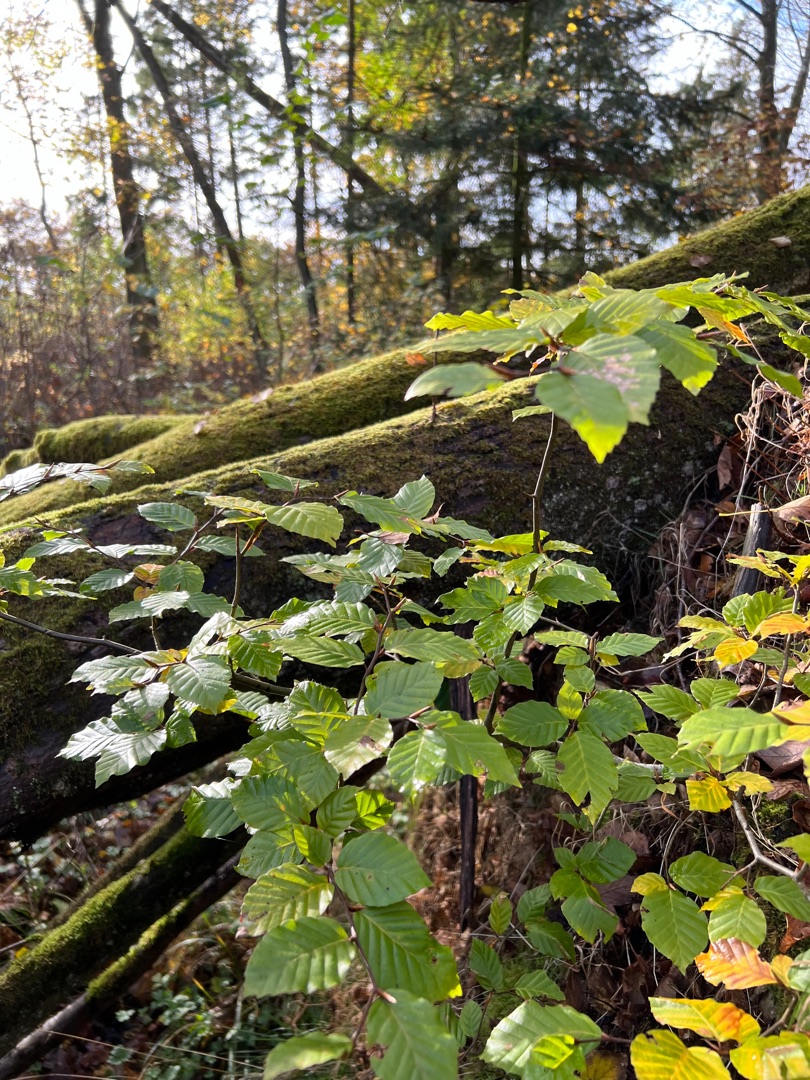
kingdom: Plantae
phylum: Tracheophyta
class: Magnoliopsida
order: Fagales
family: Fagaceae
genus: Fagus
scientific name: Fagus sylvatica
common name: Bøg
